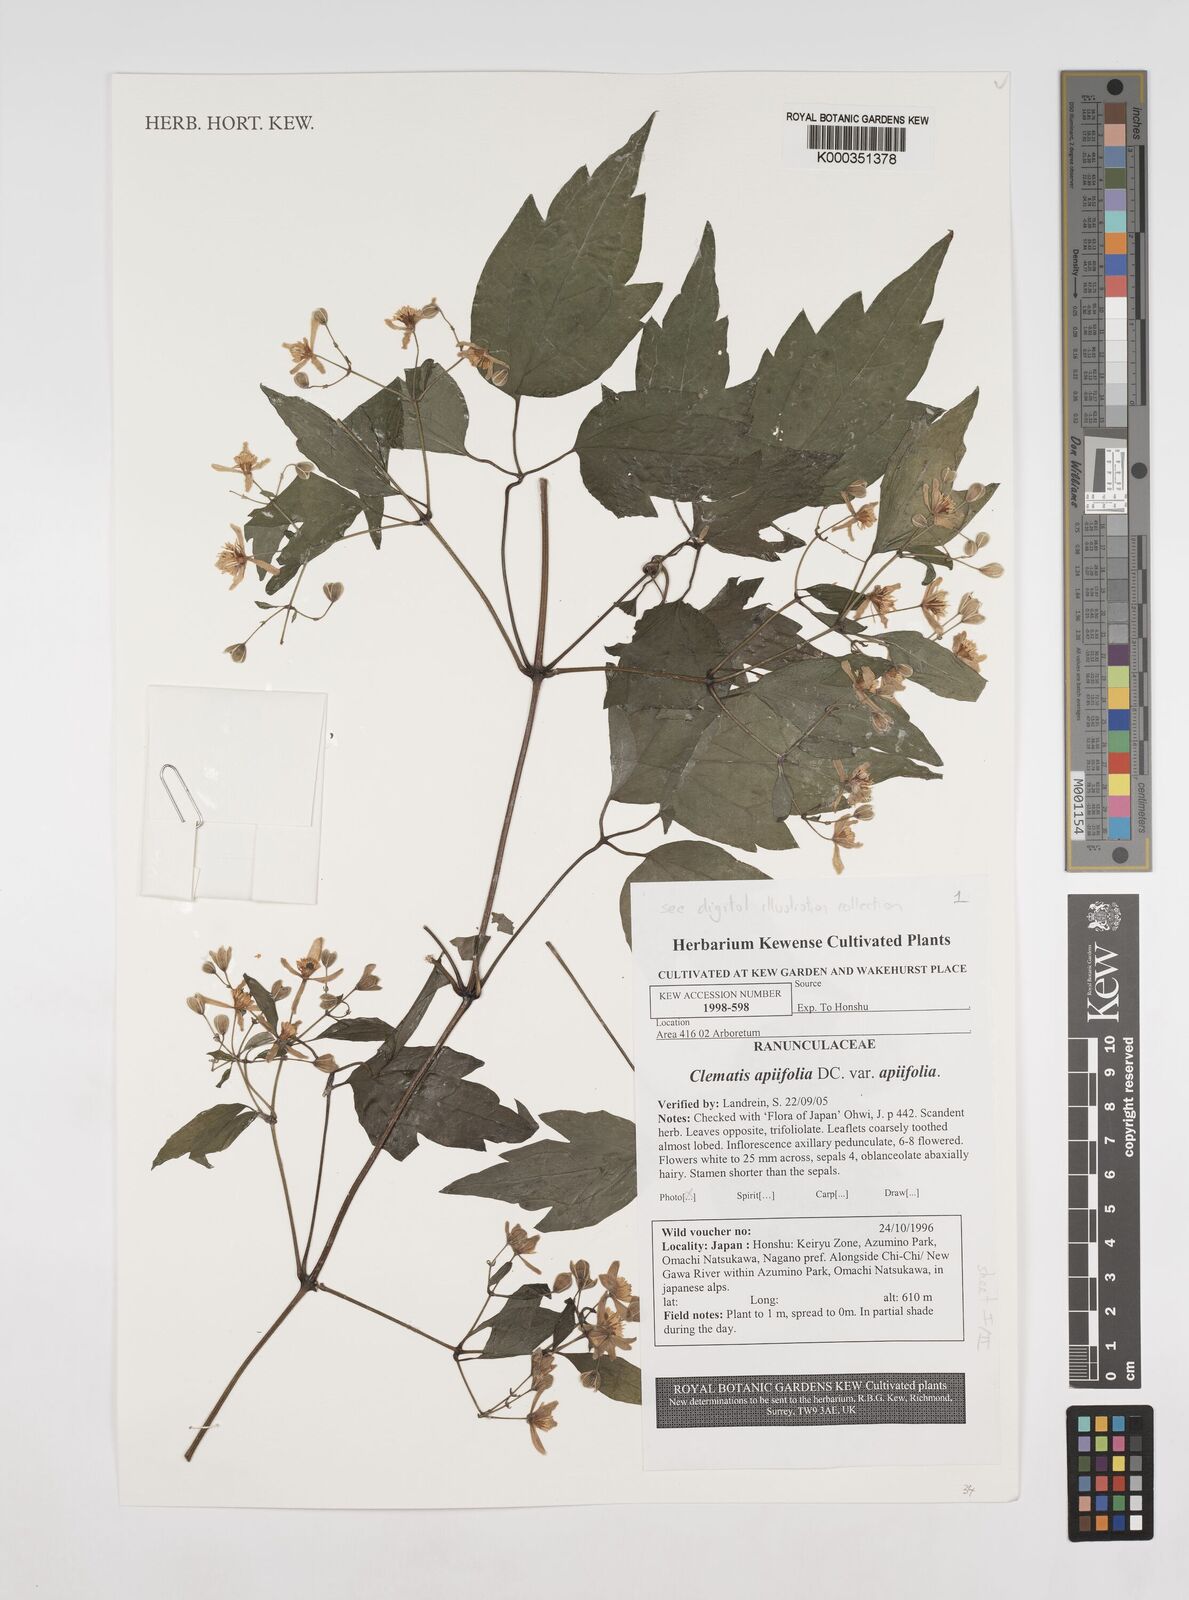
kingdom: Plantae
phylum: Tracheophyta
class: Magnoliopsida
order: Ranunculales
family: Ranunculaceae
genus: Clematis
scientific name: Clematis apiifolia
